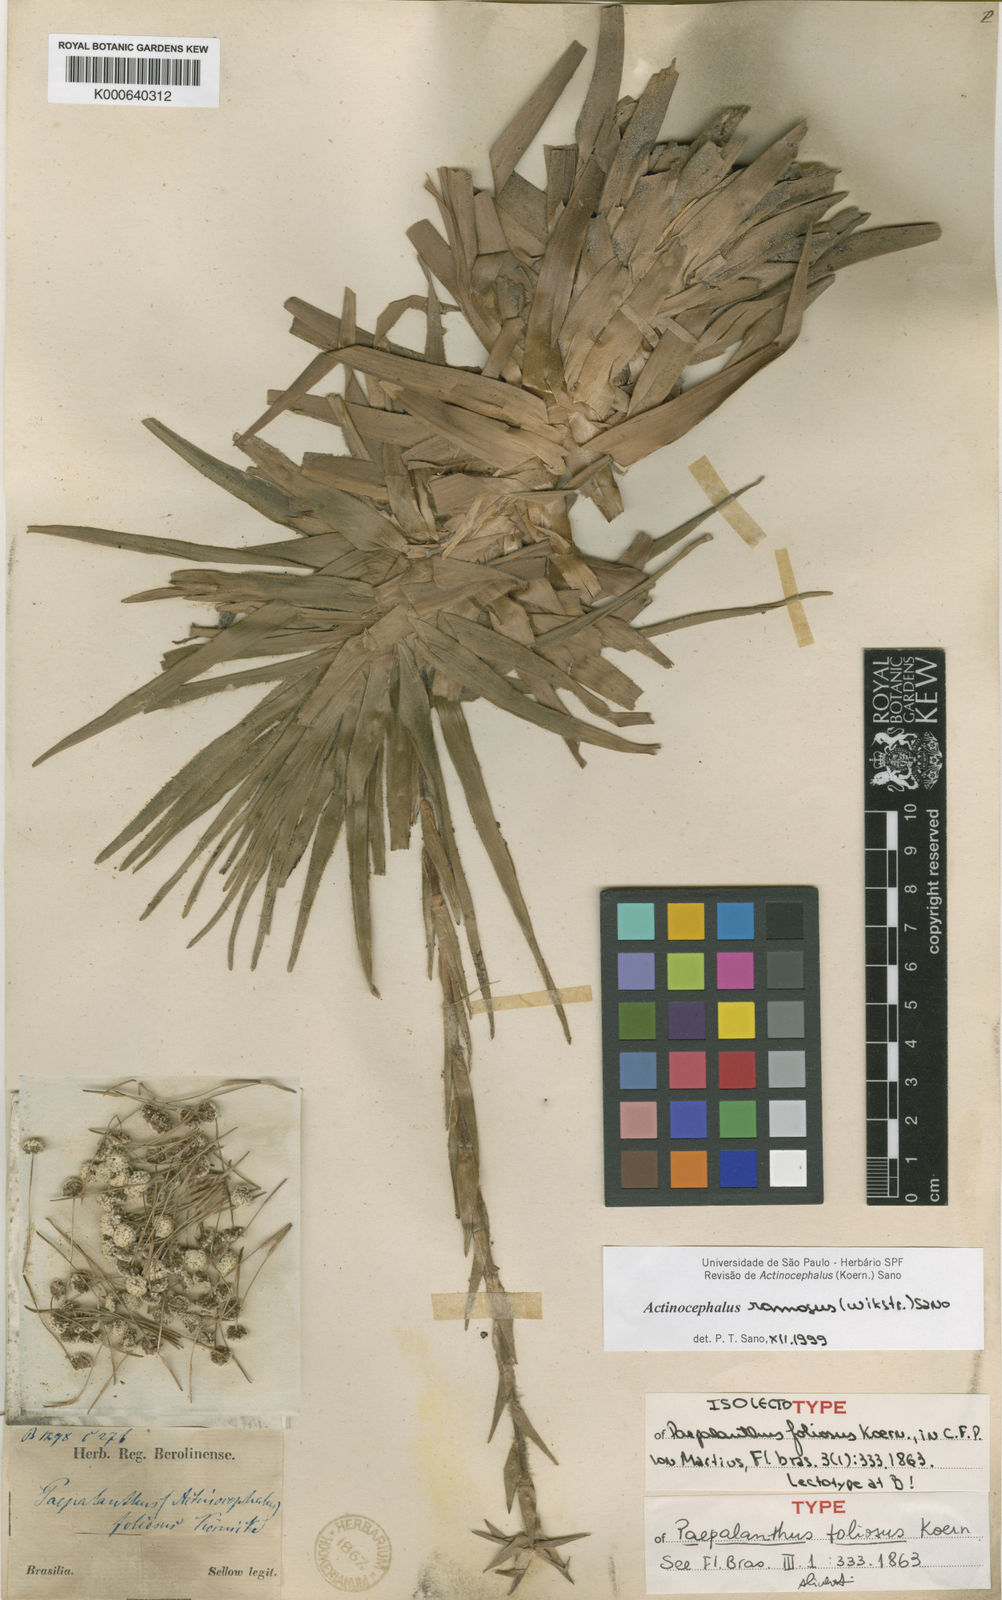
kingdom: Plantae
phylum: Tracheophyta
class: Liliopsida
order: Poales
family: Eriocaulaceae
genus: Paepalanthus
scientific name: Paepalanthus
